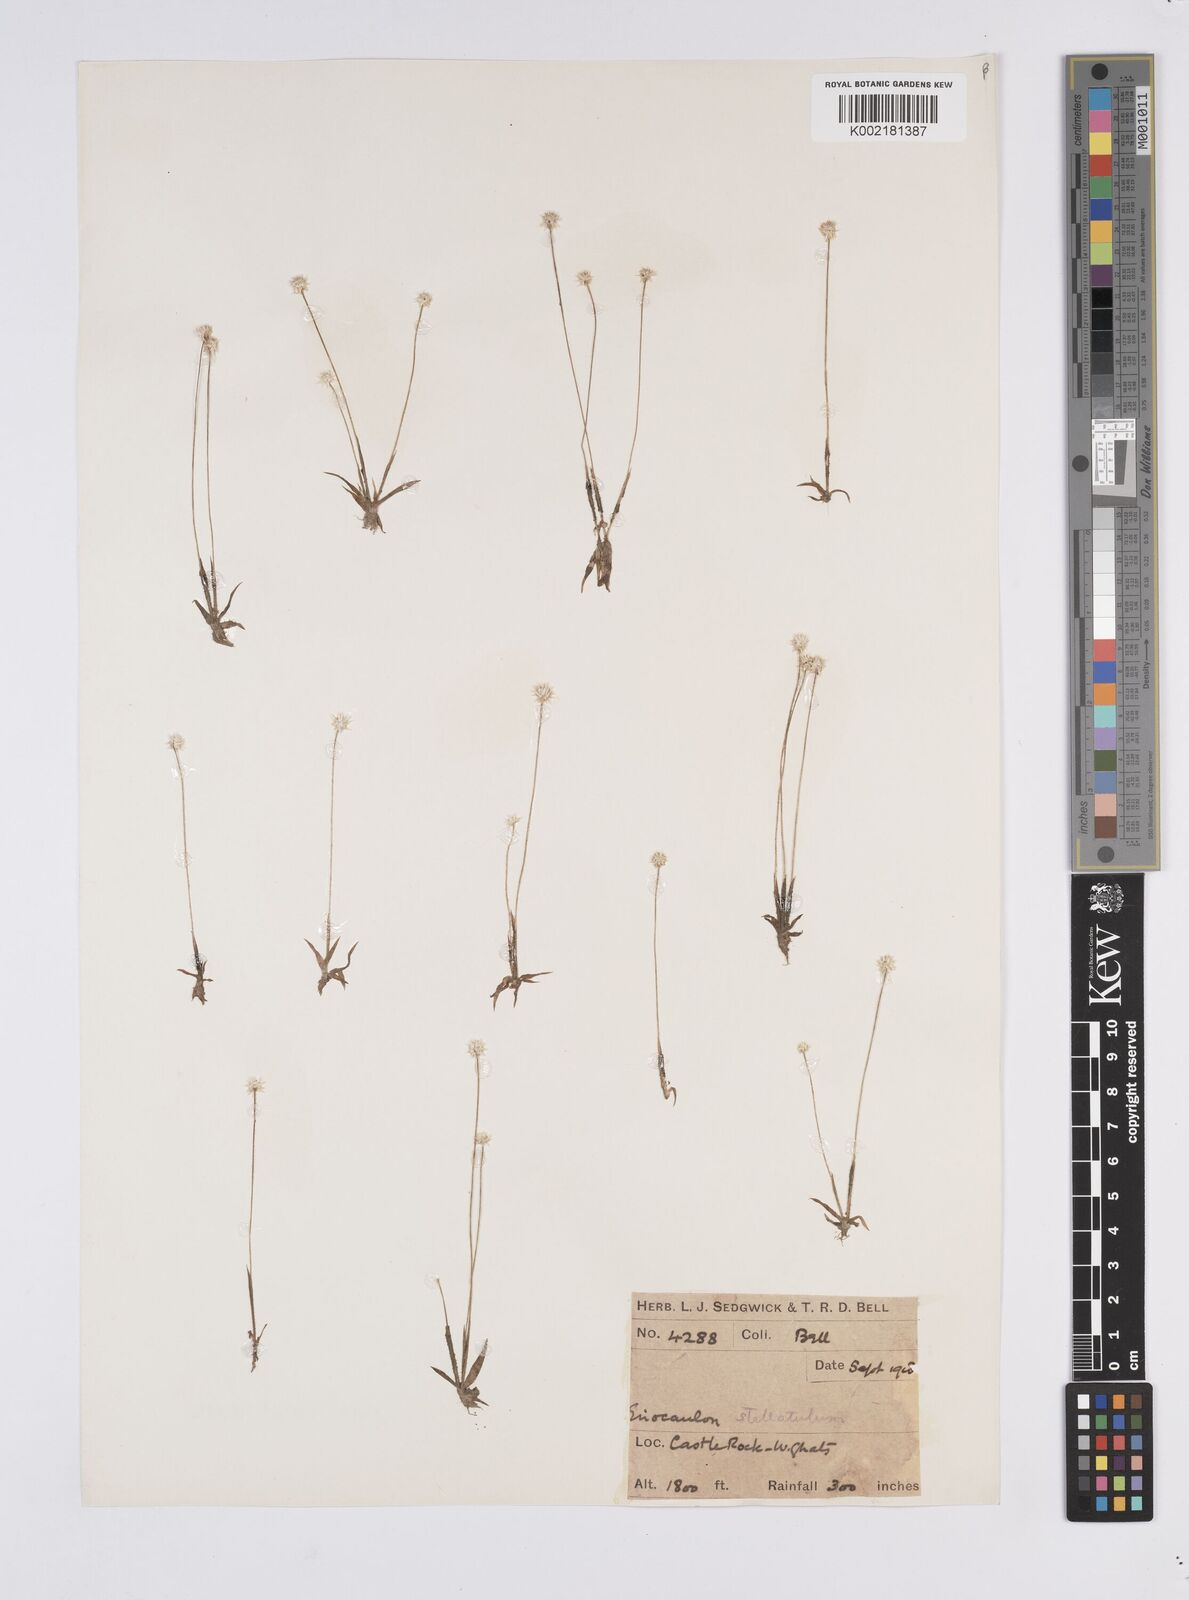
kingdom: Plantae
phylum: Tracheophyta
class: Liliopsida
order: Poales
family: Eriocaulaceae
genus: Eriocaulon
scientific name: Eriocaulon stellulatum
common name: Starry pipewort
